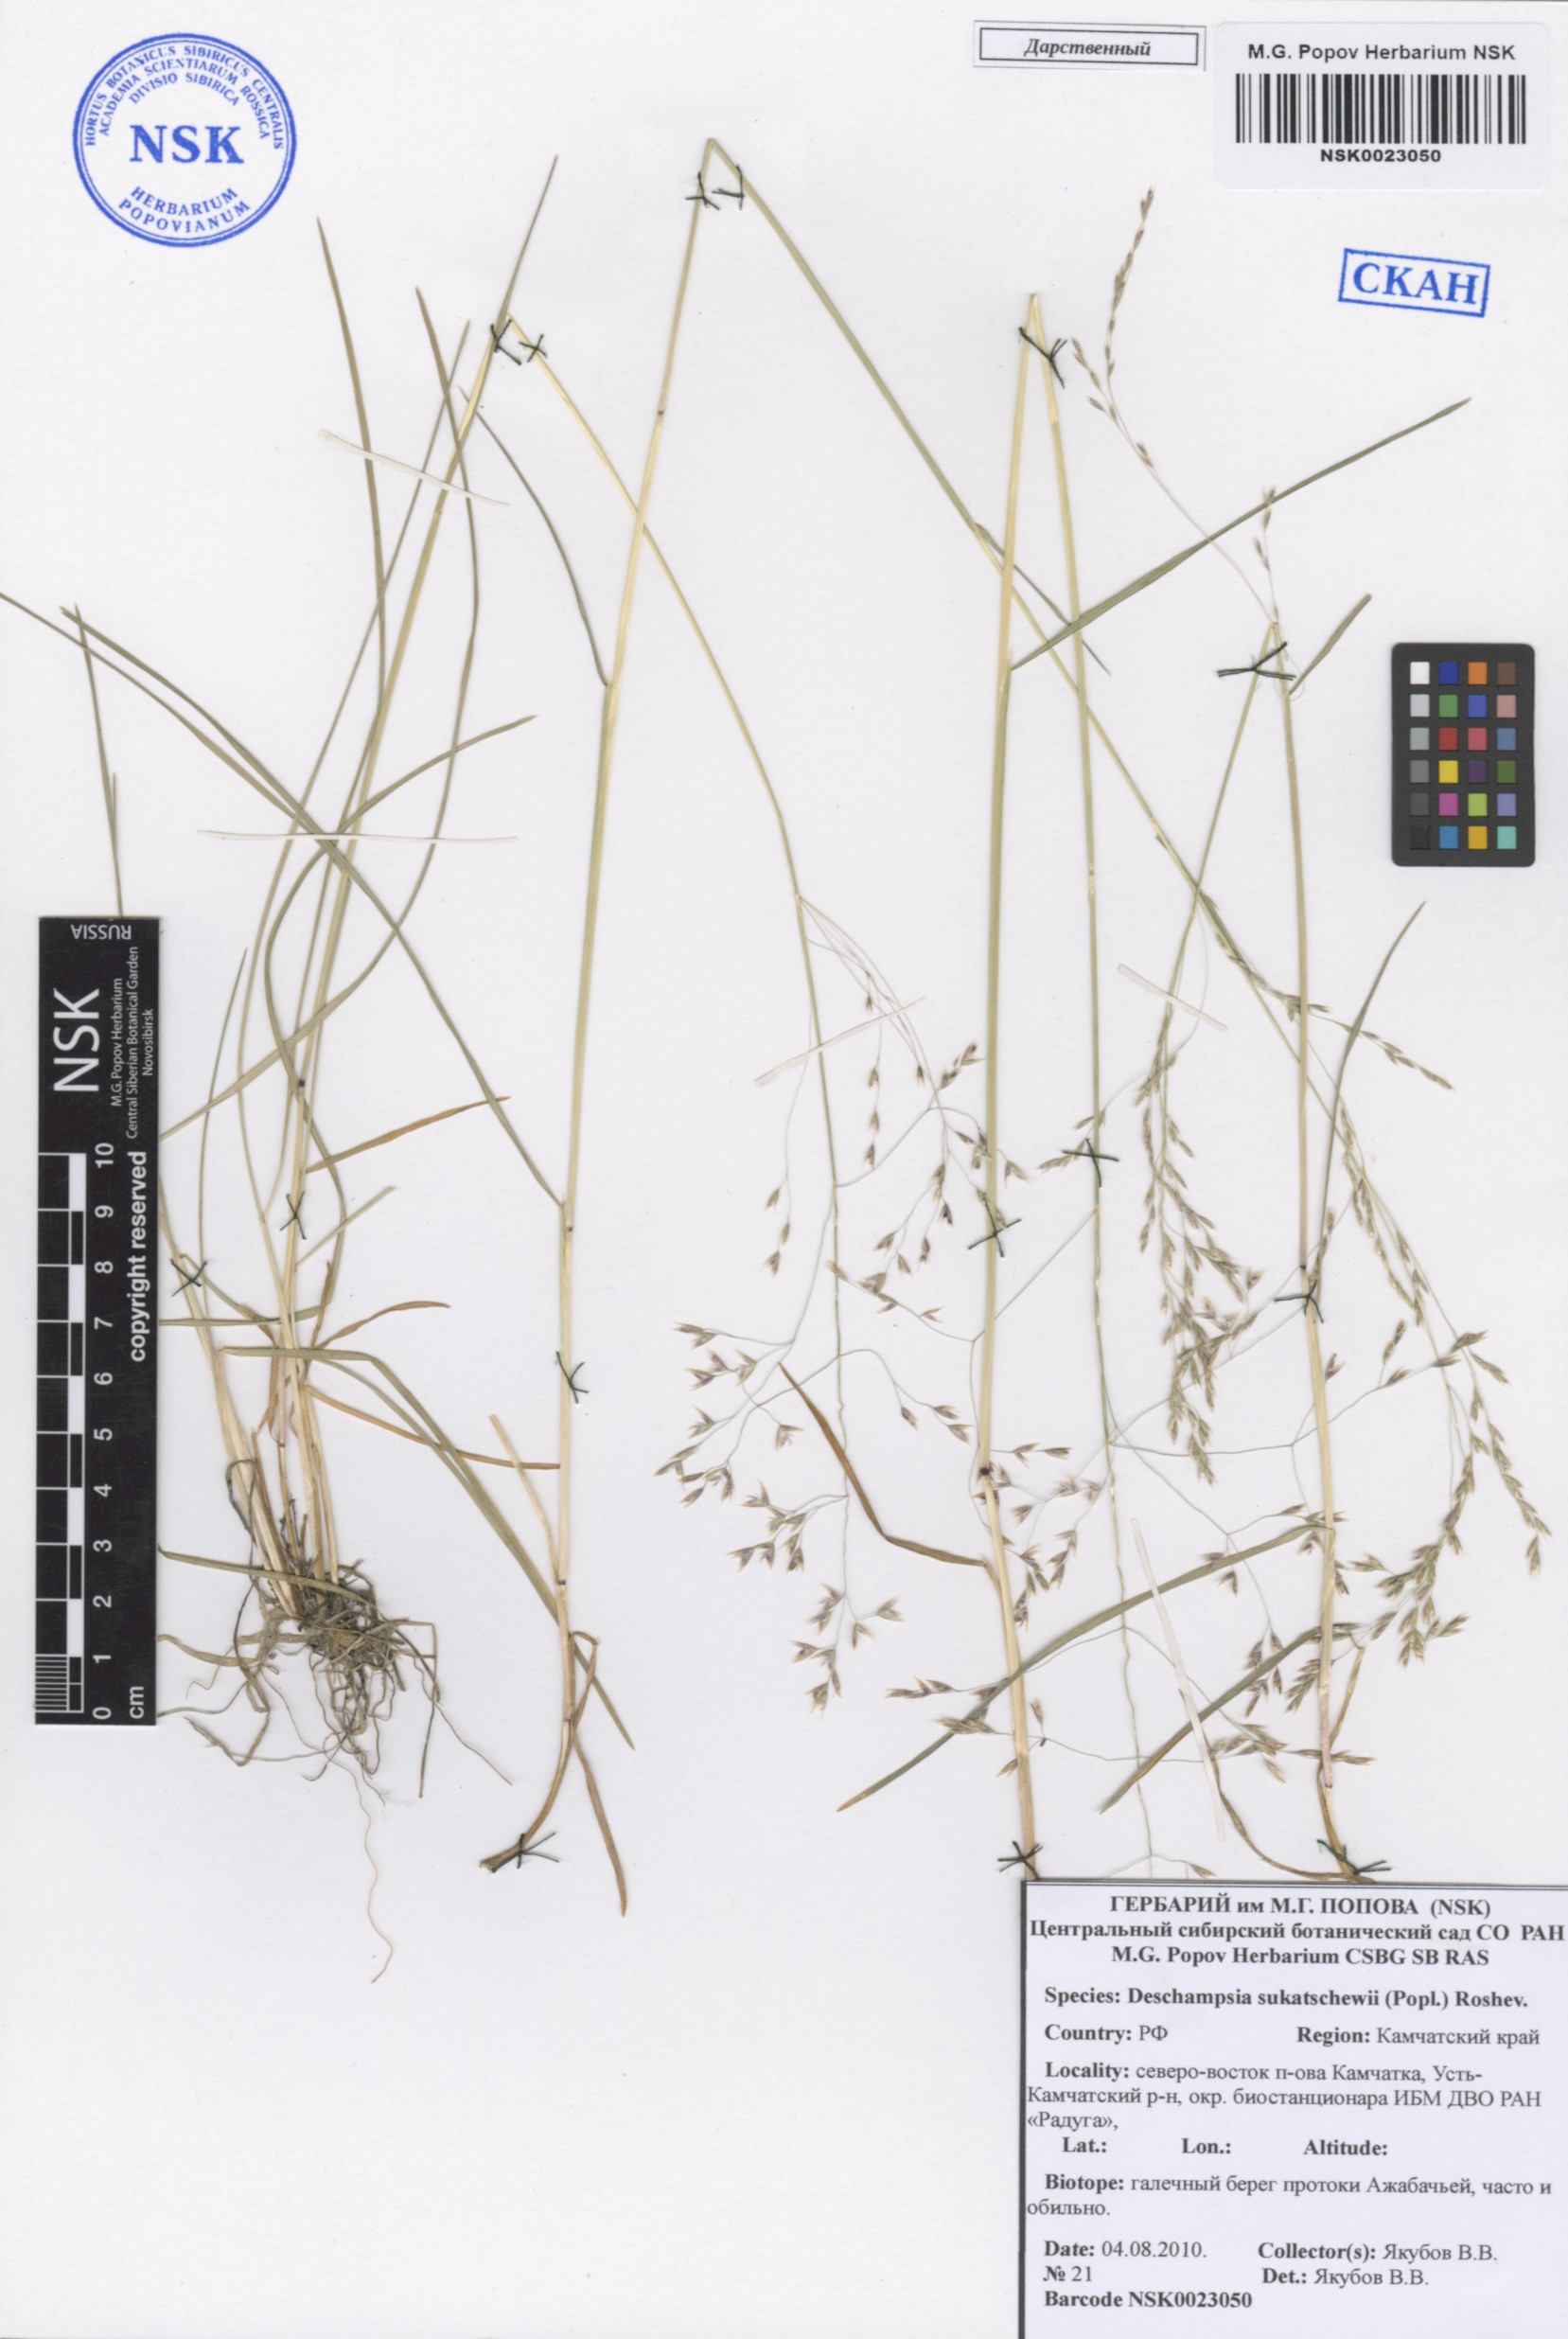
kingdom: Plantae
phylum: Tracheophyta
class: Liliopsida
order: Poales
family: Poaceae
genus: Deschampsia
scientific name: Deschampsia cespitosa
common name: Tufted hair-grass
